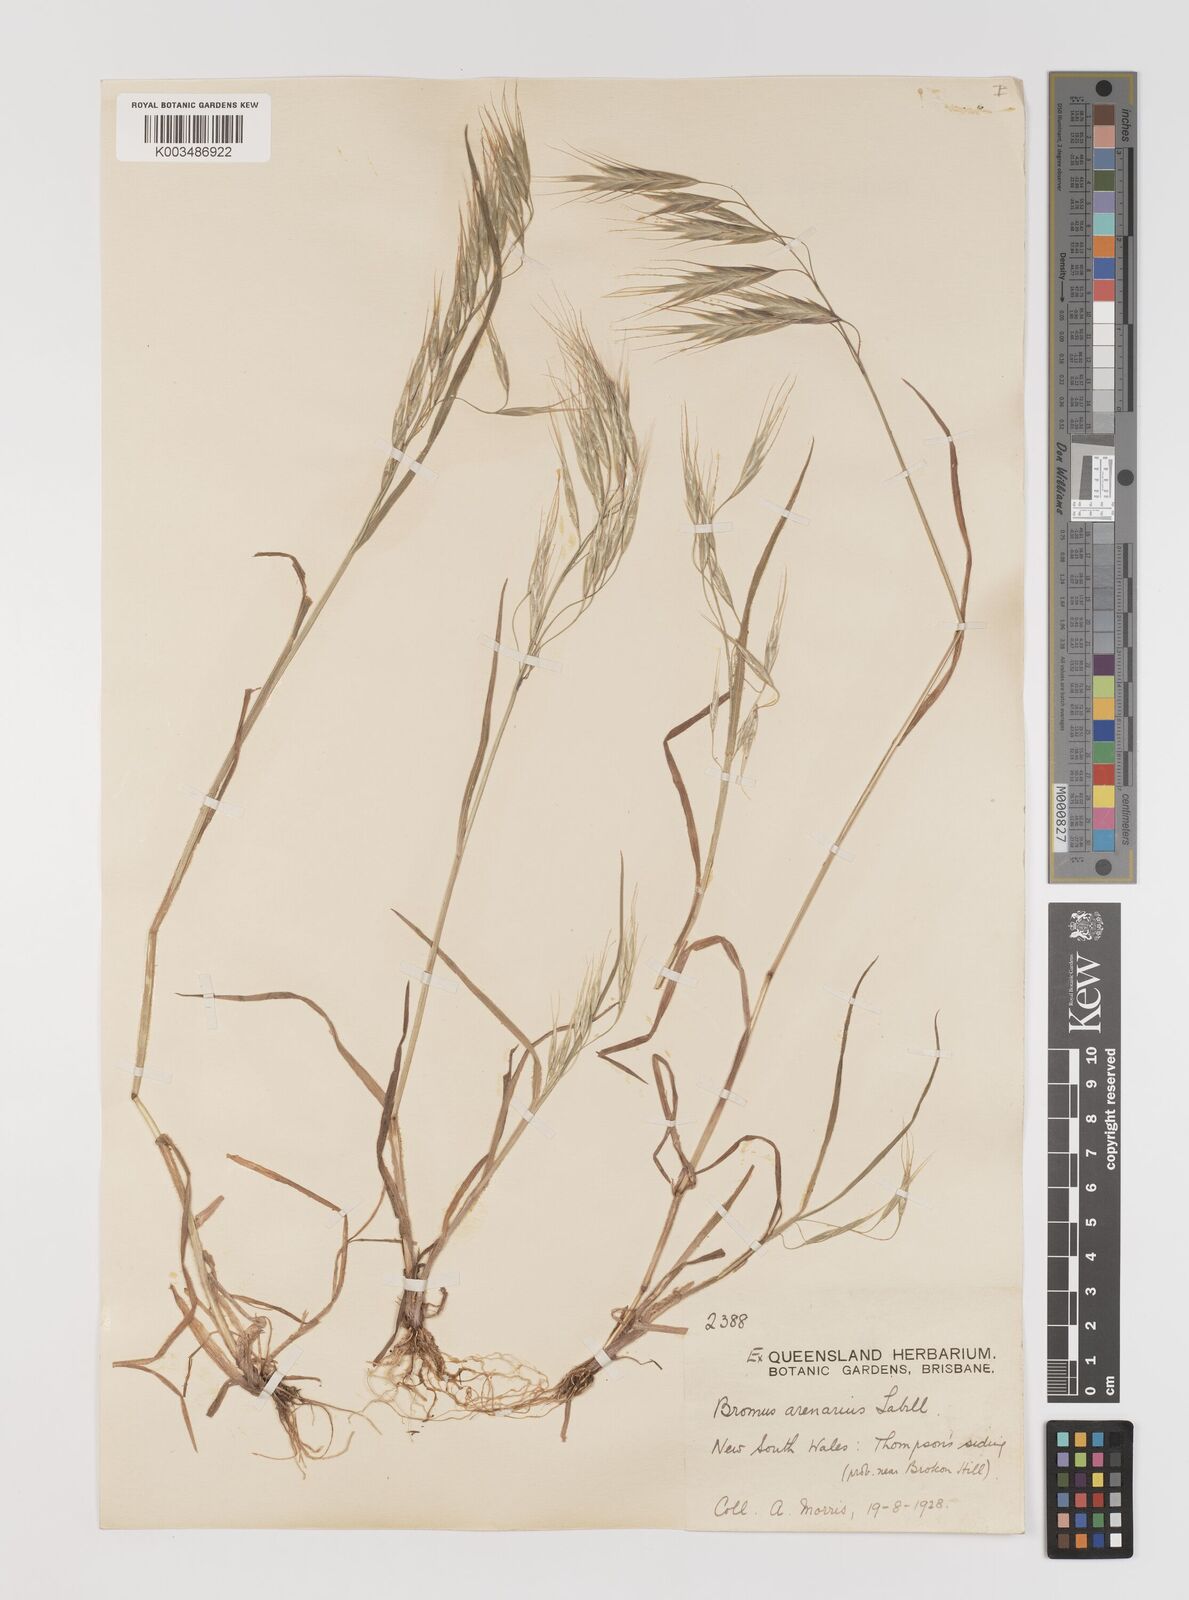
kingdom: Plantae
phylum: Tracheophyta
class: Liliopsida
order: Poales
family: Poaceae
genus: Bromus
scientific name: Bromus arenarius
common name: Australian brome
